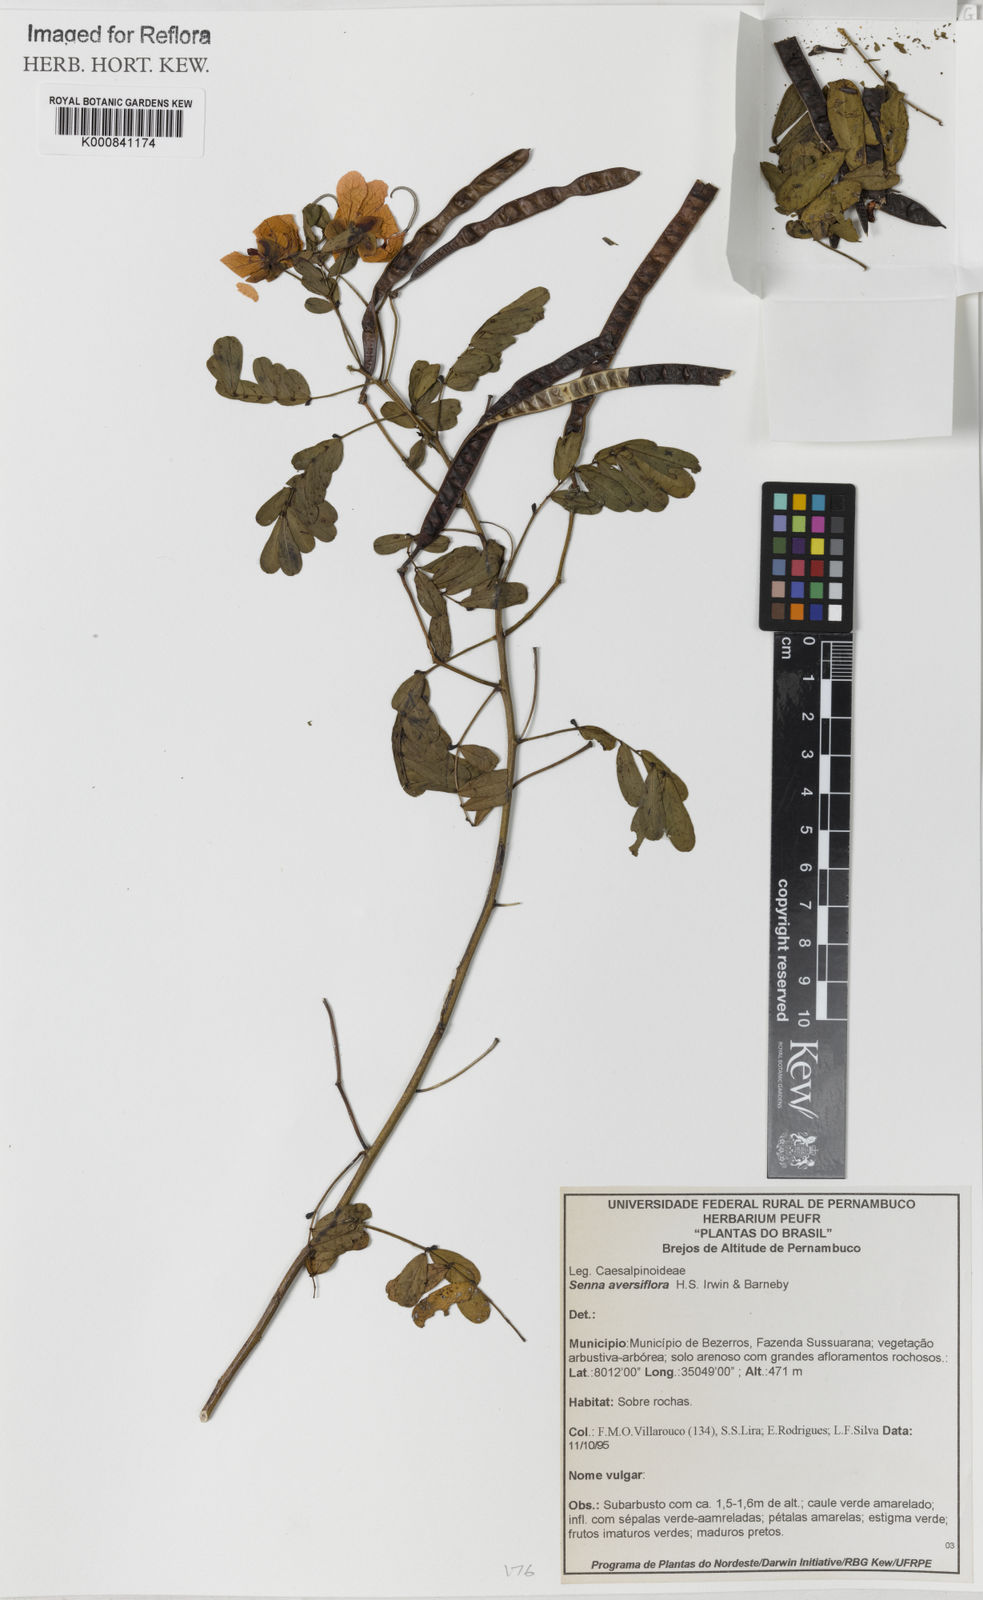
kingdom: Plantae
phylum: Tracheophyta
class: Magnoliopsida
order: Fabales
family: Fabaceae
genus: Senna
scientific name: Senna aversiflora
